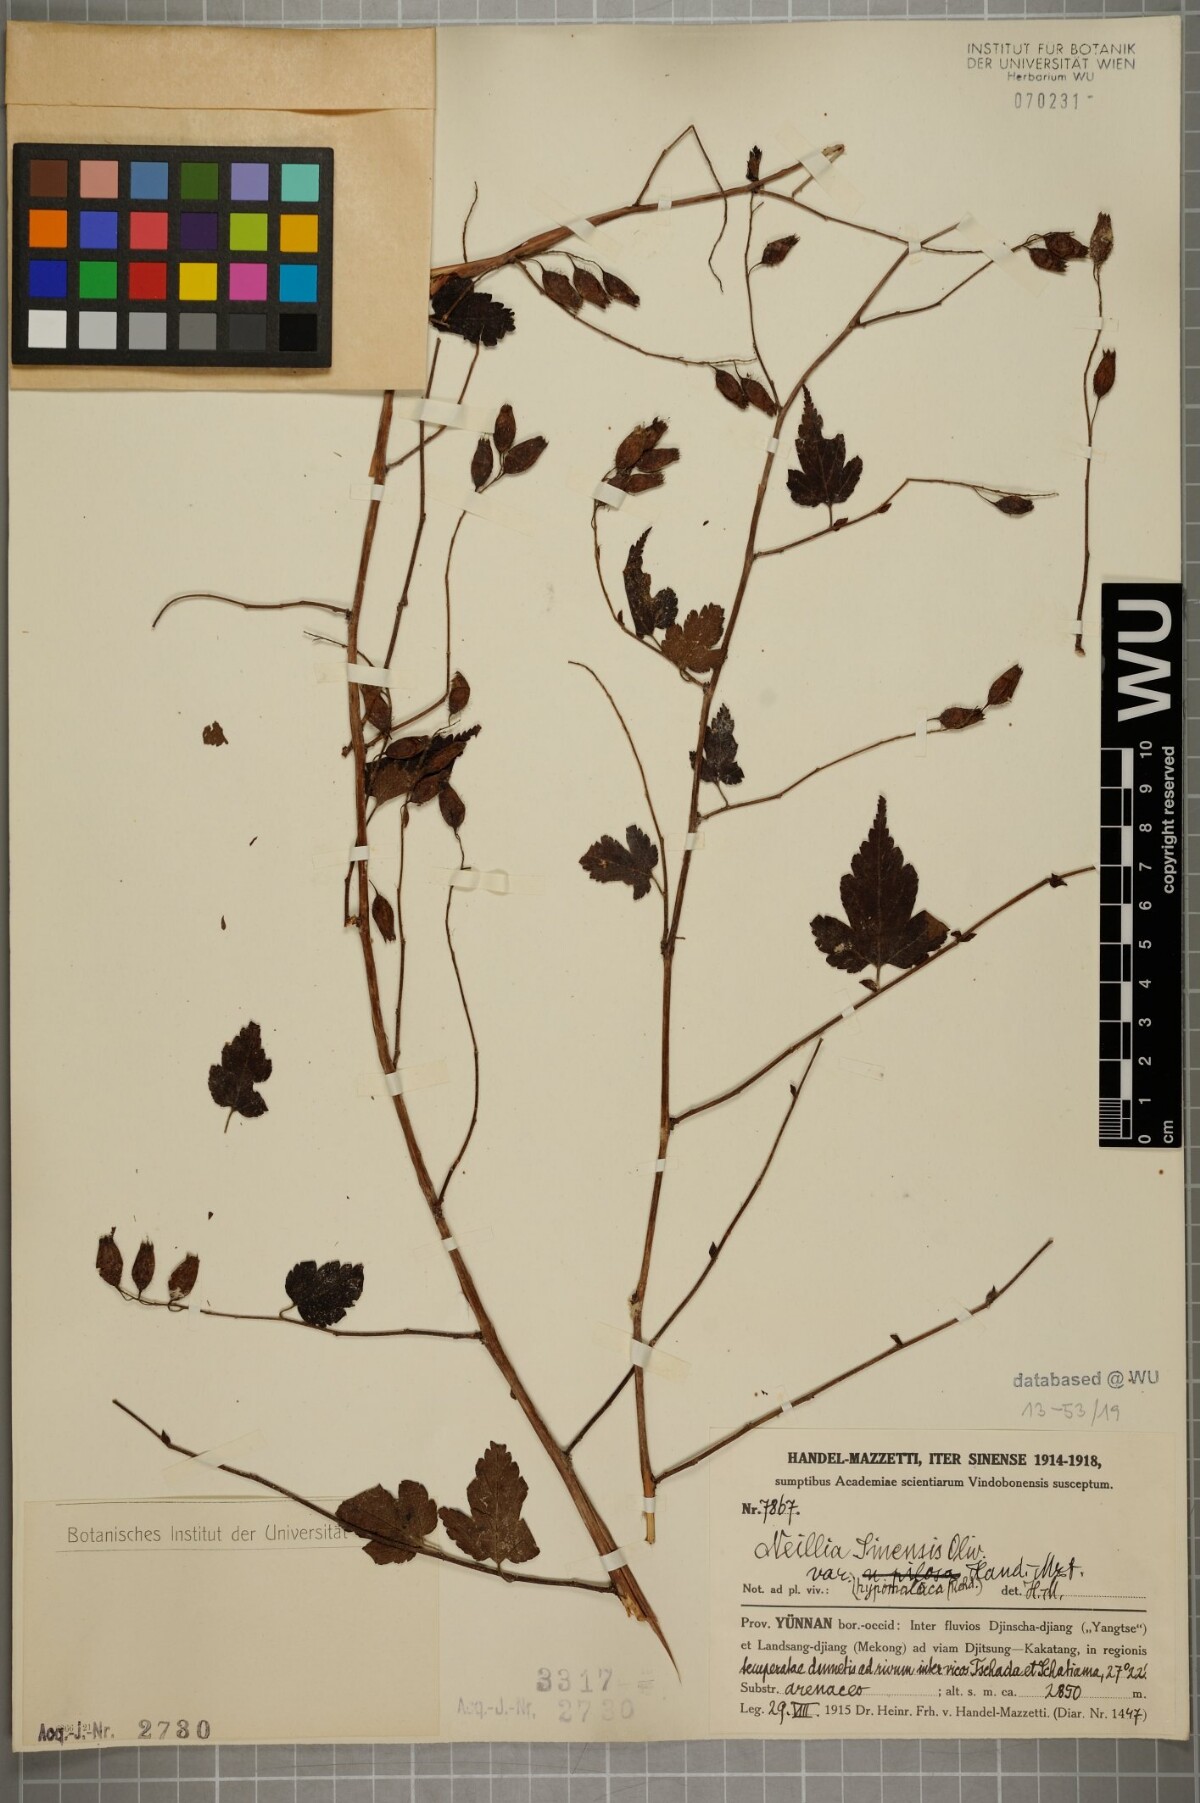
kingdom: Plantae
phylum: Tracheophyta
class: Magnoliopsida
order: Rosales
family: Rosaceae
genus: Neillia
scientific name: Neillia sinensis
